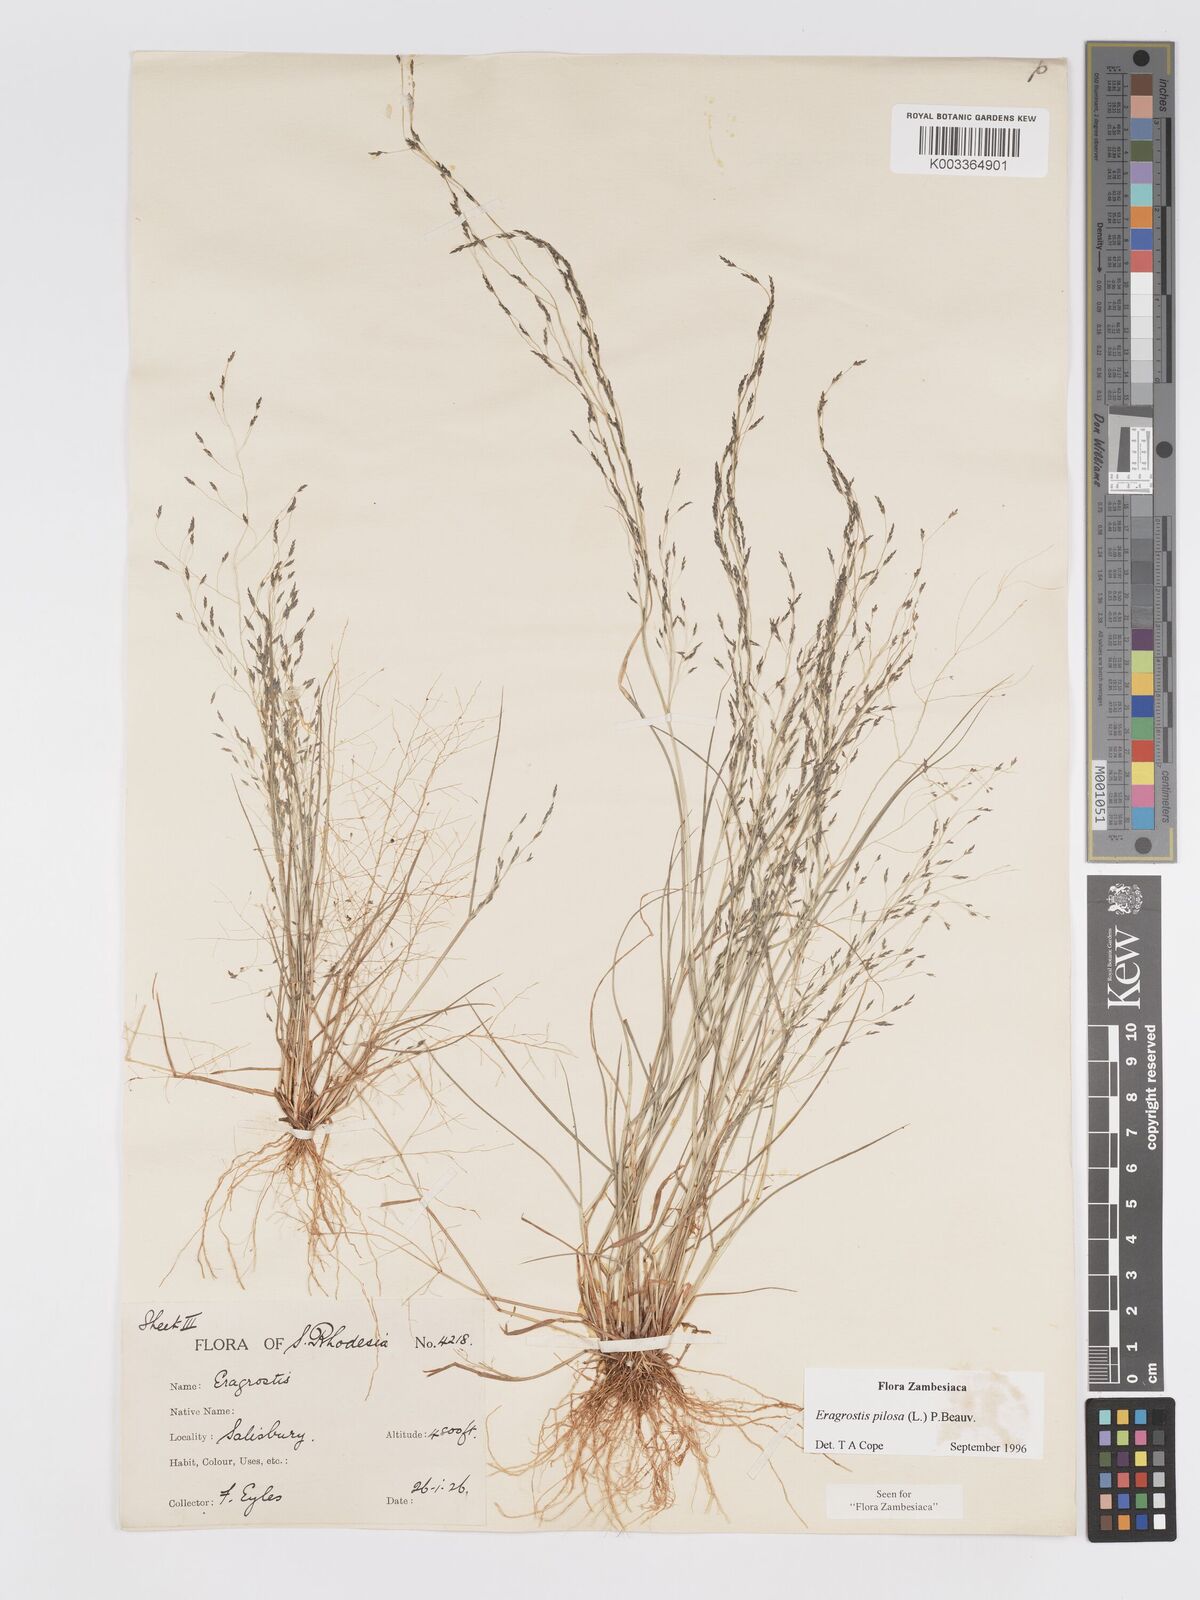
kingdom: Plantae
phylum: Tracheophyta
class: Liliopsida
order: Poales
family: Poaceae
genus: Eragrostis
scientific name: Eragrostis pilosa
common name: Indian lovegrass
